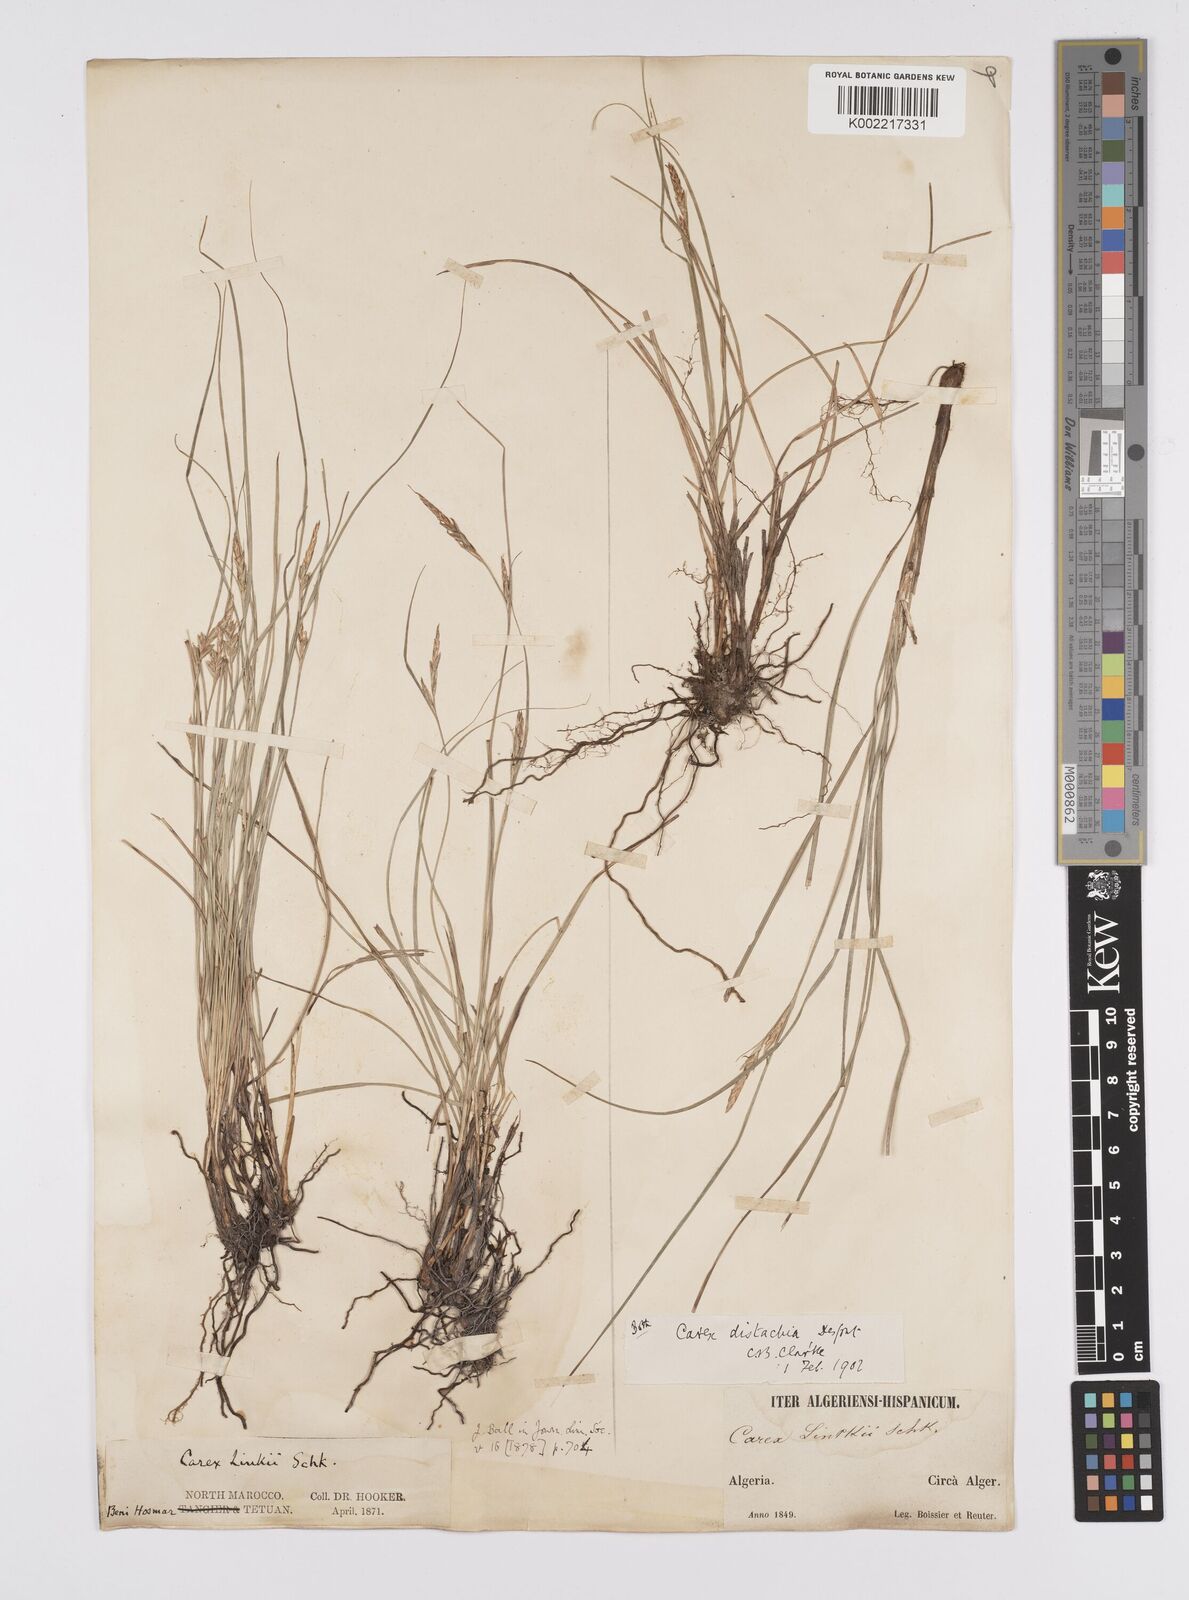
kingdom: Plantae
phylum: Tracheophyta
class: Liliopsida
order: Poales
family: Cyperaceae
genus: Carex
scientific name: Carex distachya
